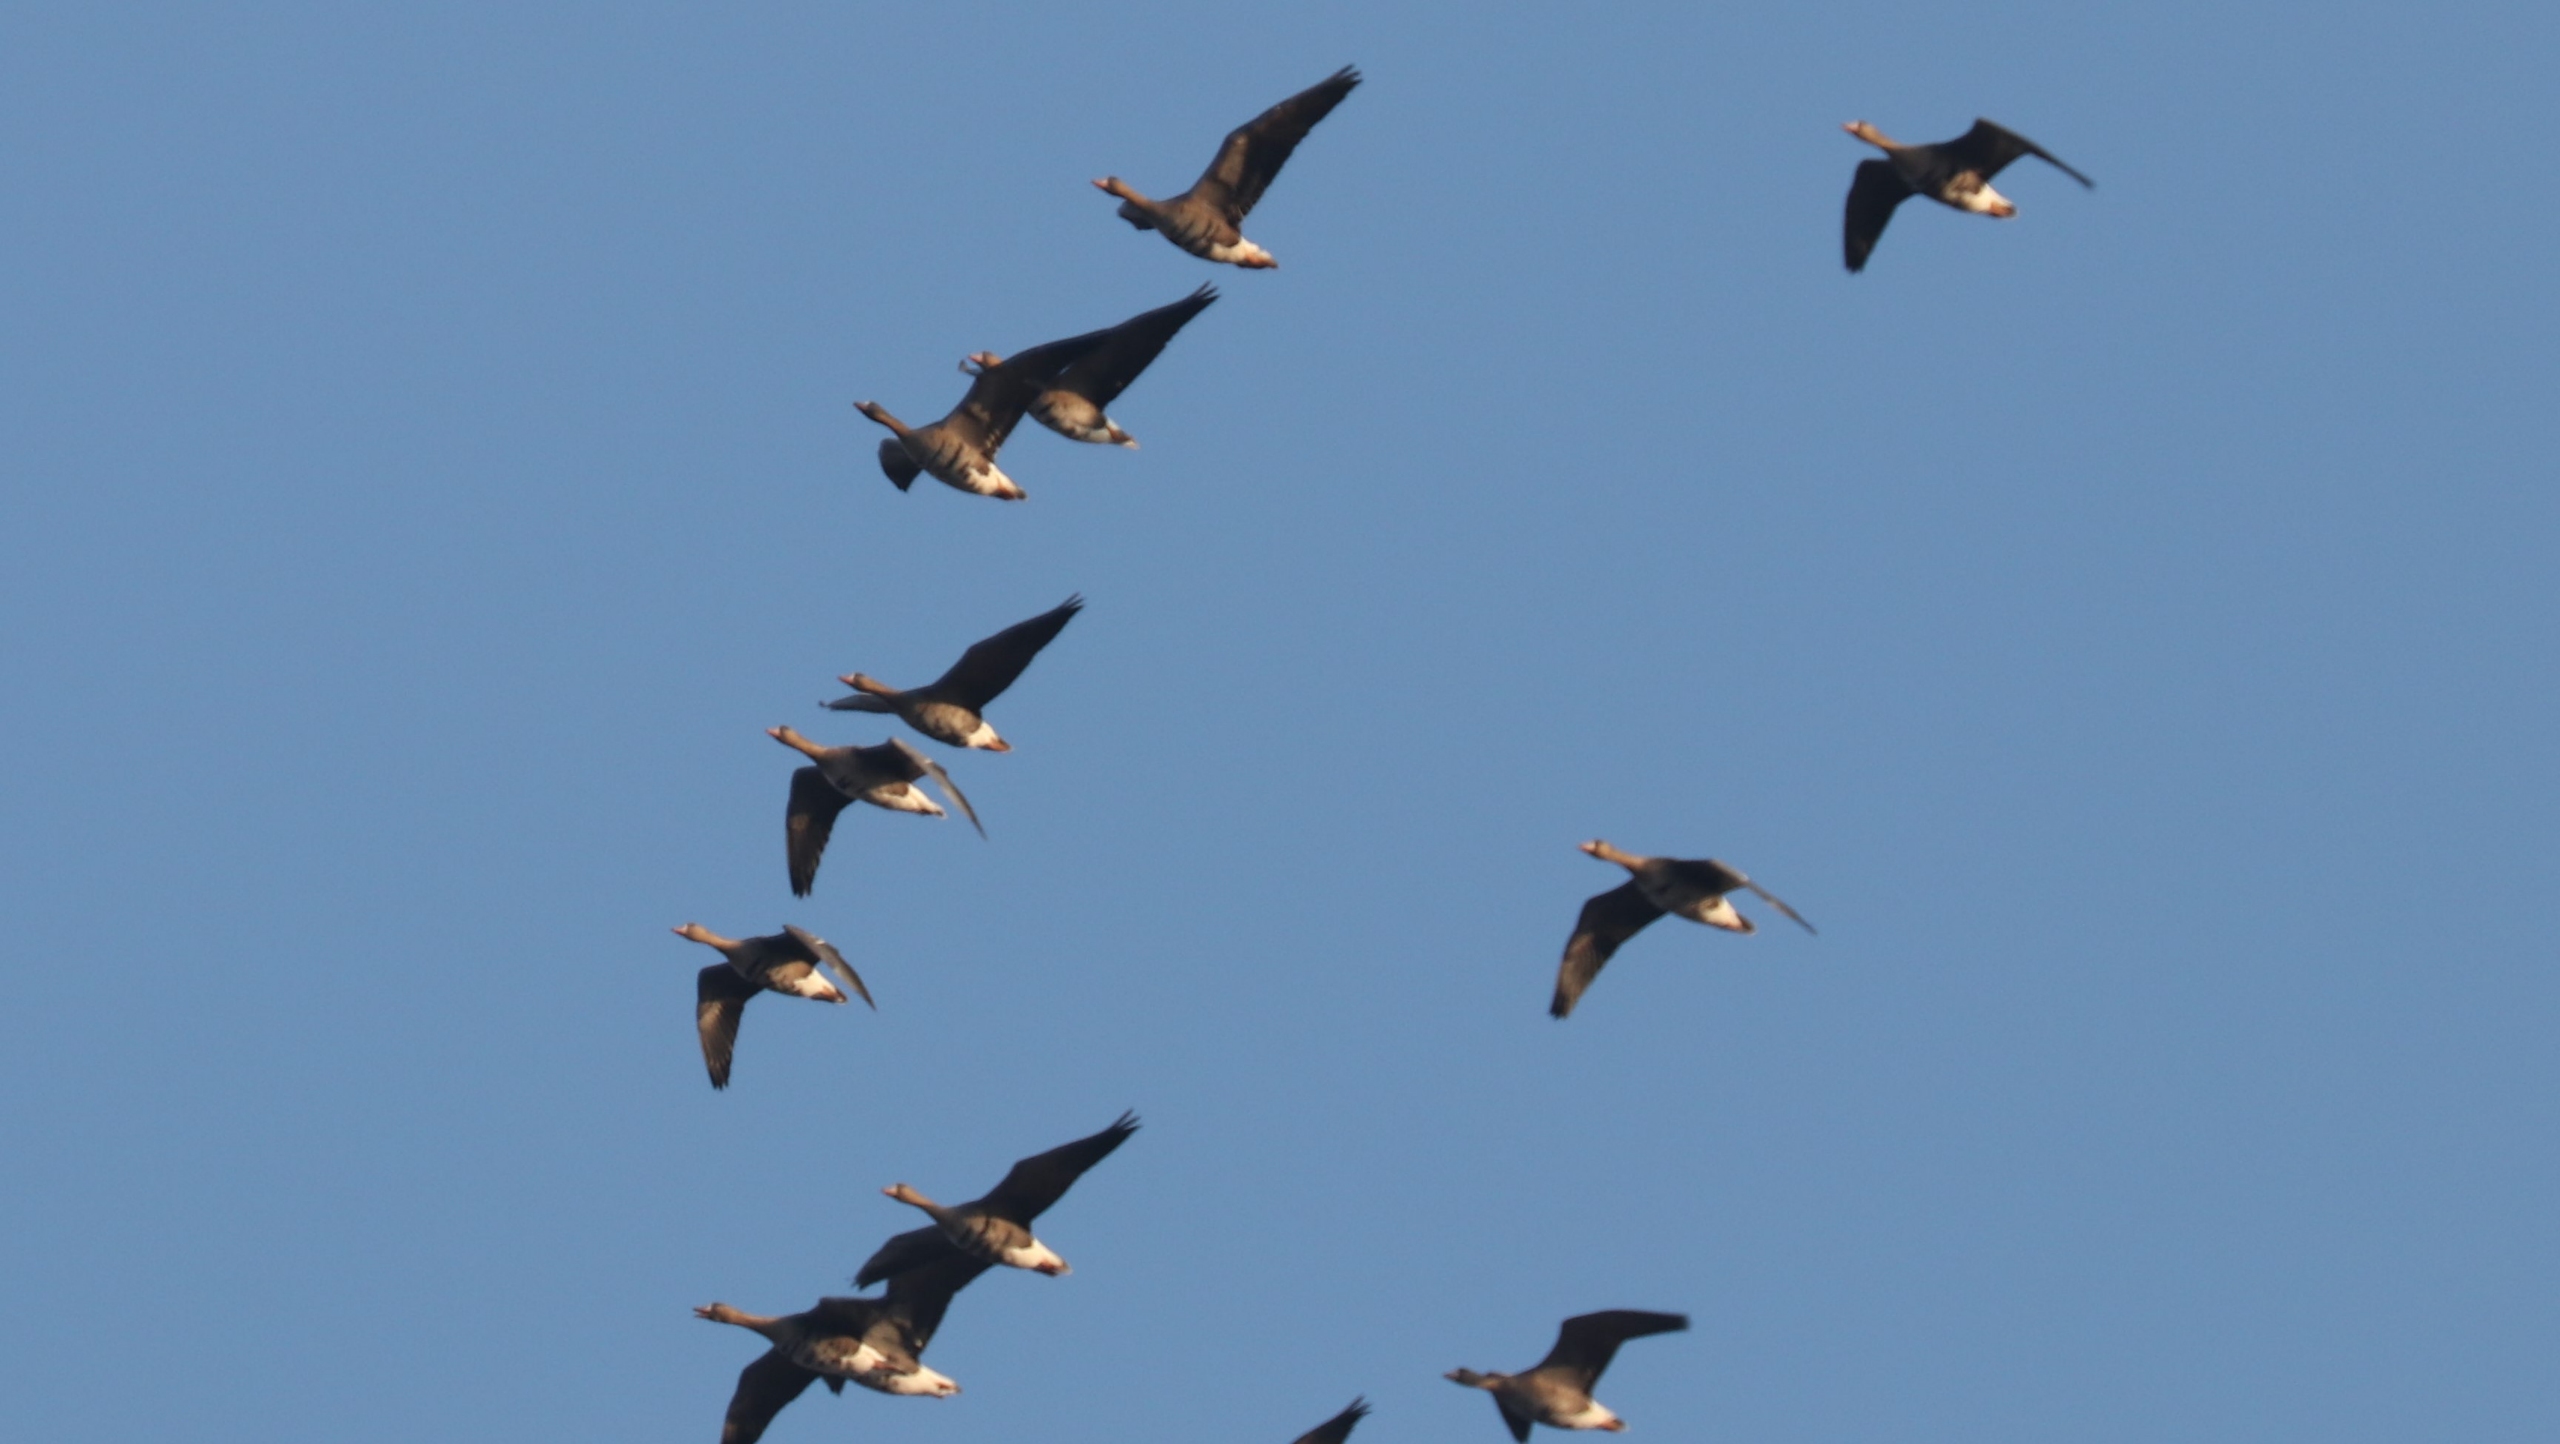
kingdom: Animalia
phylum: Chordata
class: Aves
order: Anseriformes
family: Anatidae
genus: Anser
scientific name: Anser albifrons
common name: Blisgås
